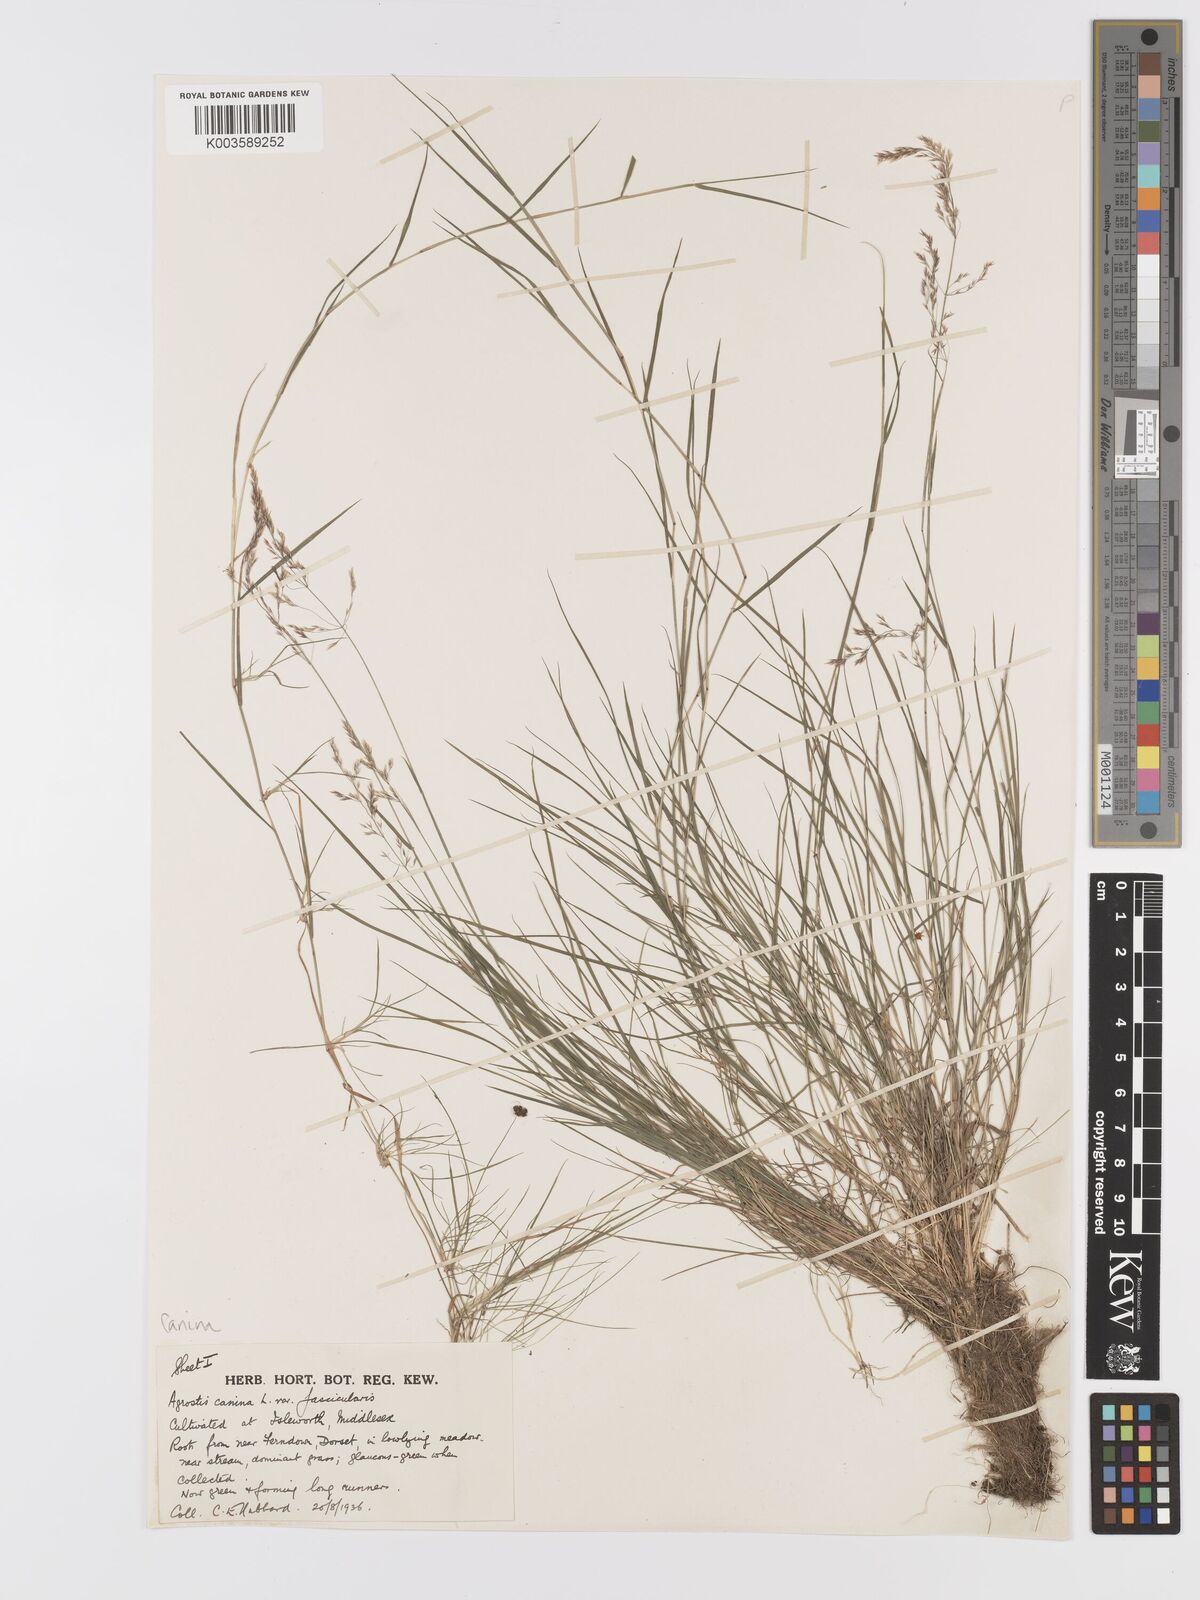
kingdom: Plantae
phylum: Tracheophyta
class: Liliopsida
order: Poales
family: Poaceae
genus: Agrostis
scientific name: Agrostis canina
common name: Velvet bent
